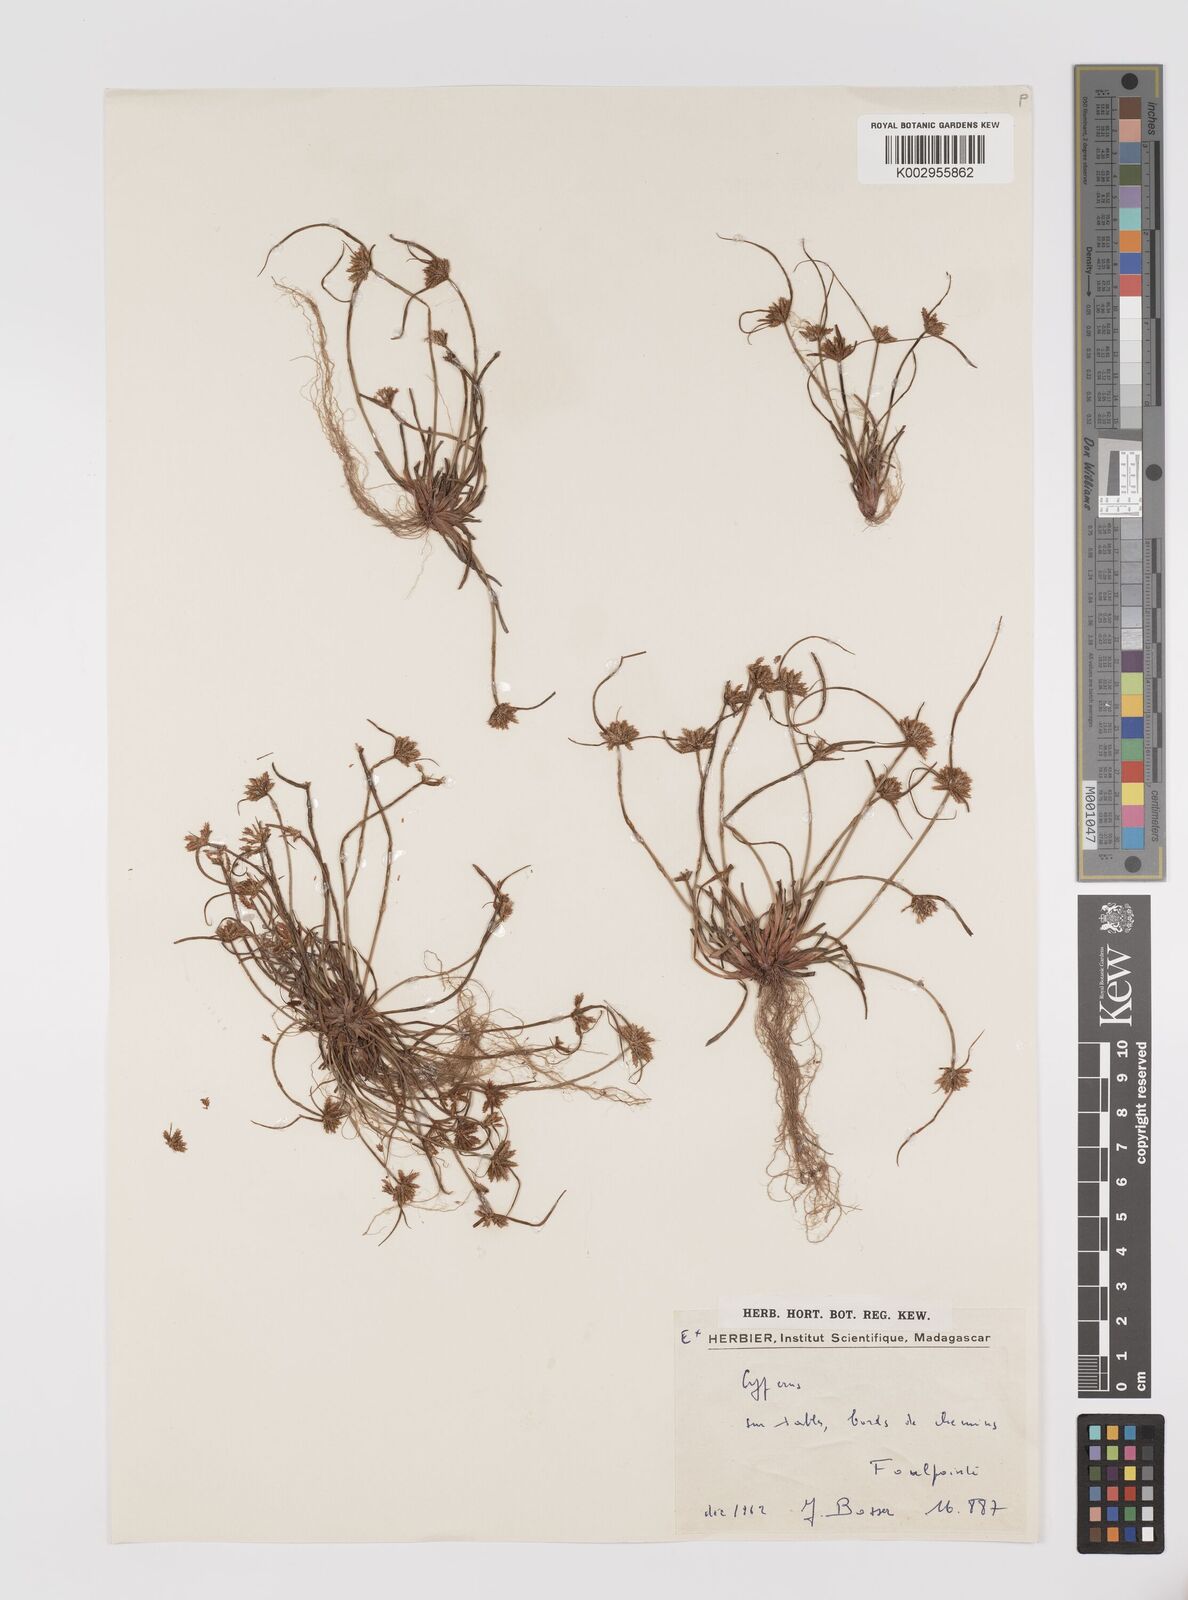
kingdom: Plantae
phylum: Tracheophyta
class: Liliopsida
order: Poales
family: Cyperaceae
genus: Cyperus
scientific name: Cyperus
